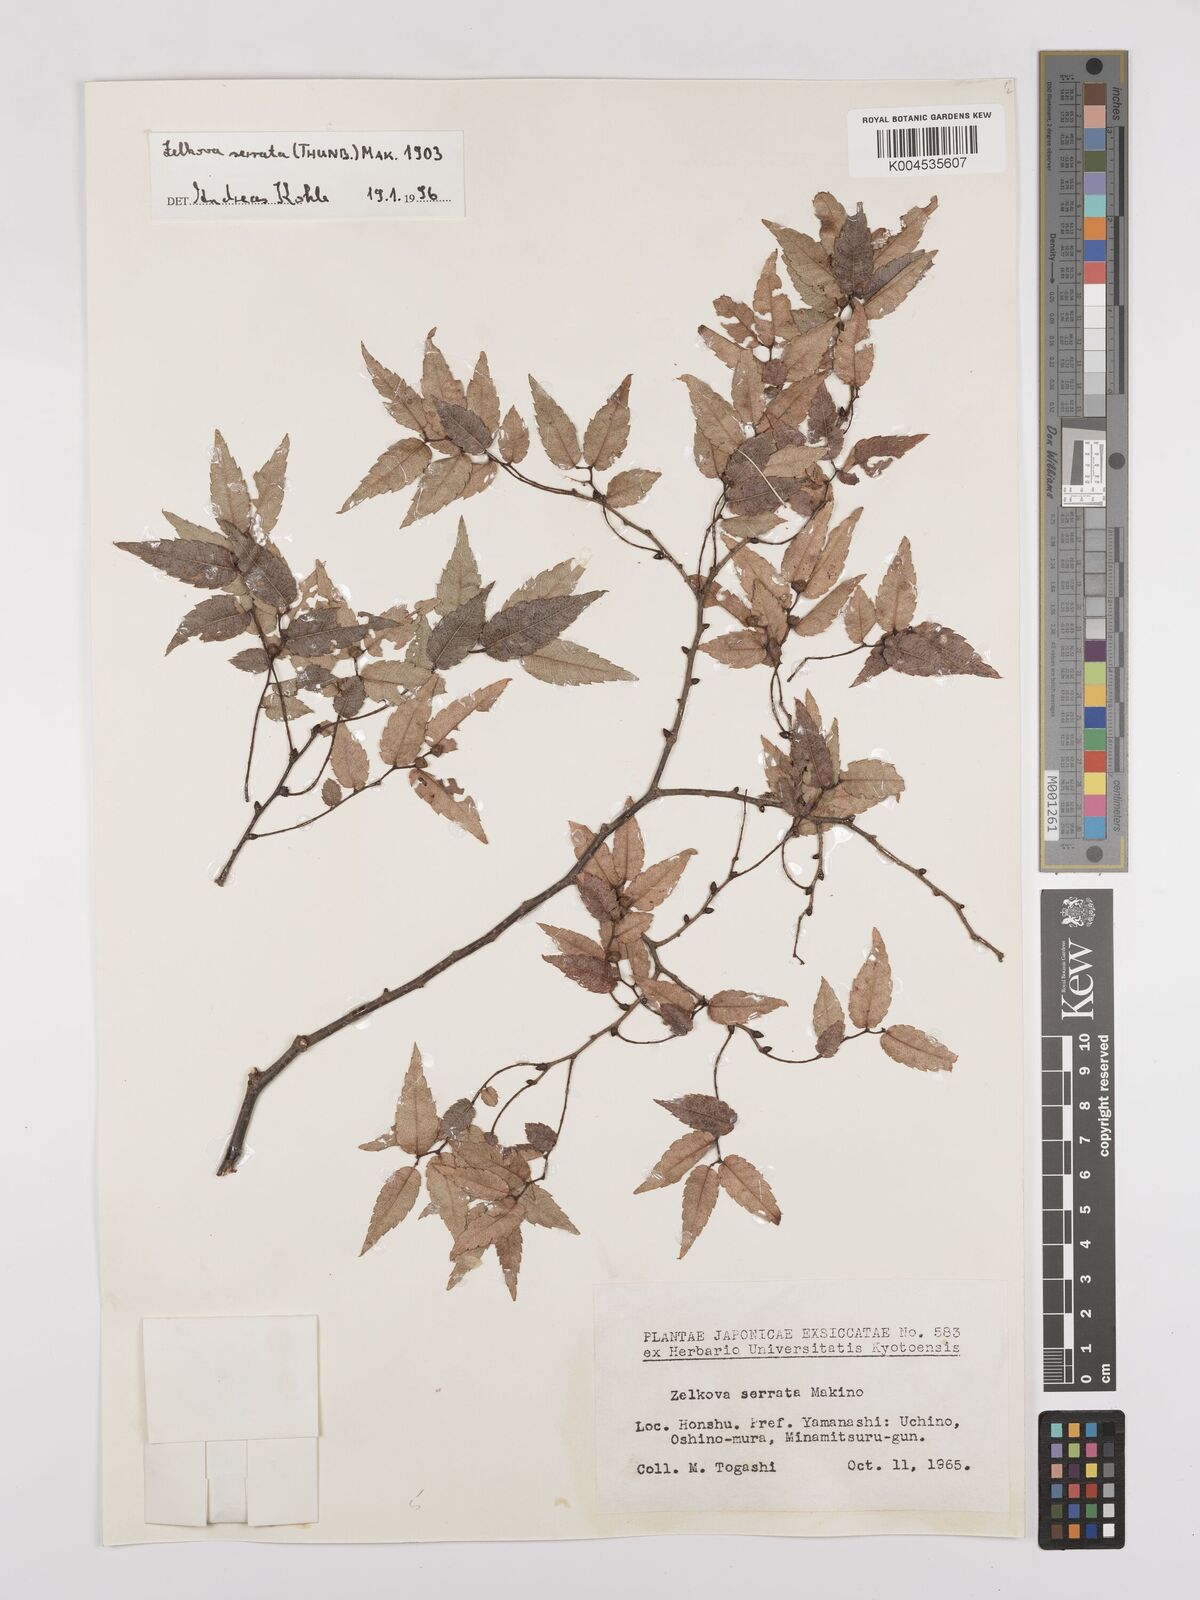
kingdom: Plantae
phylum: Tracheophyta
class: Magnoliopsida
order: Rosales
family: Ulmaceae
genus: Zelkova
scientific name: Zelkova serrata
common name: Japanese zelkova
